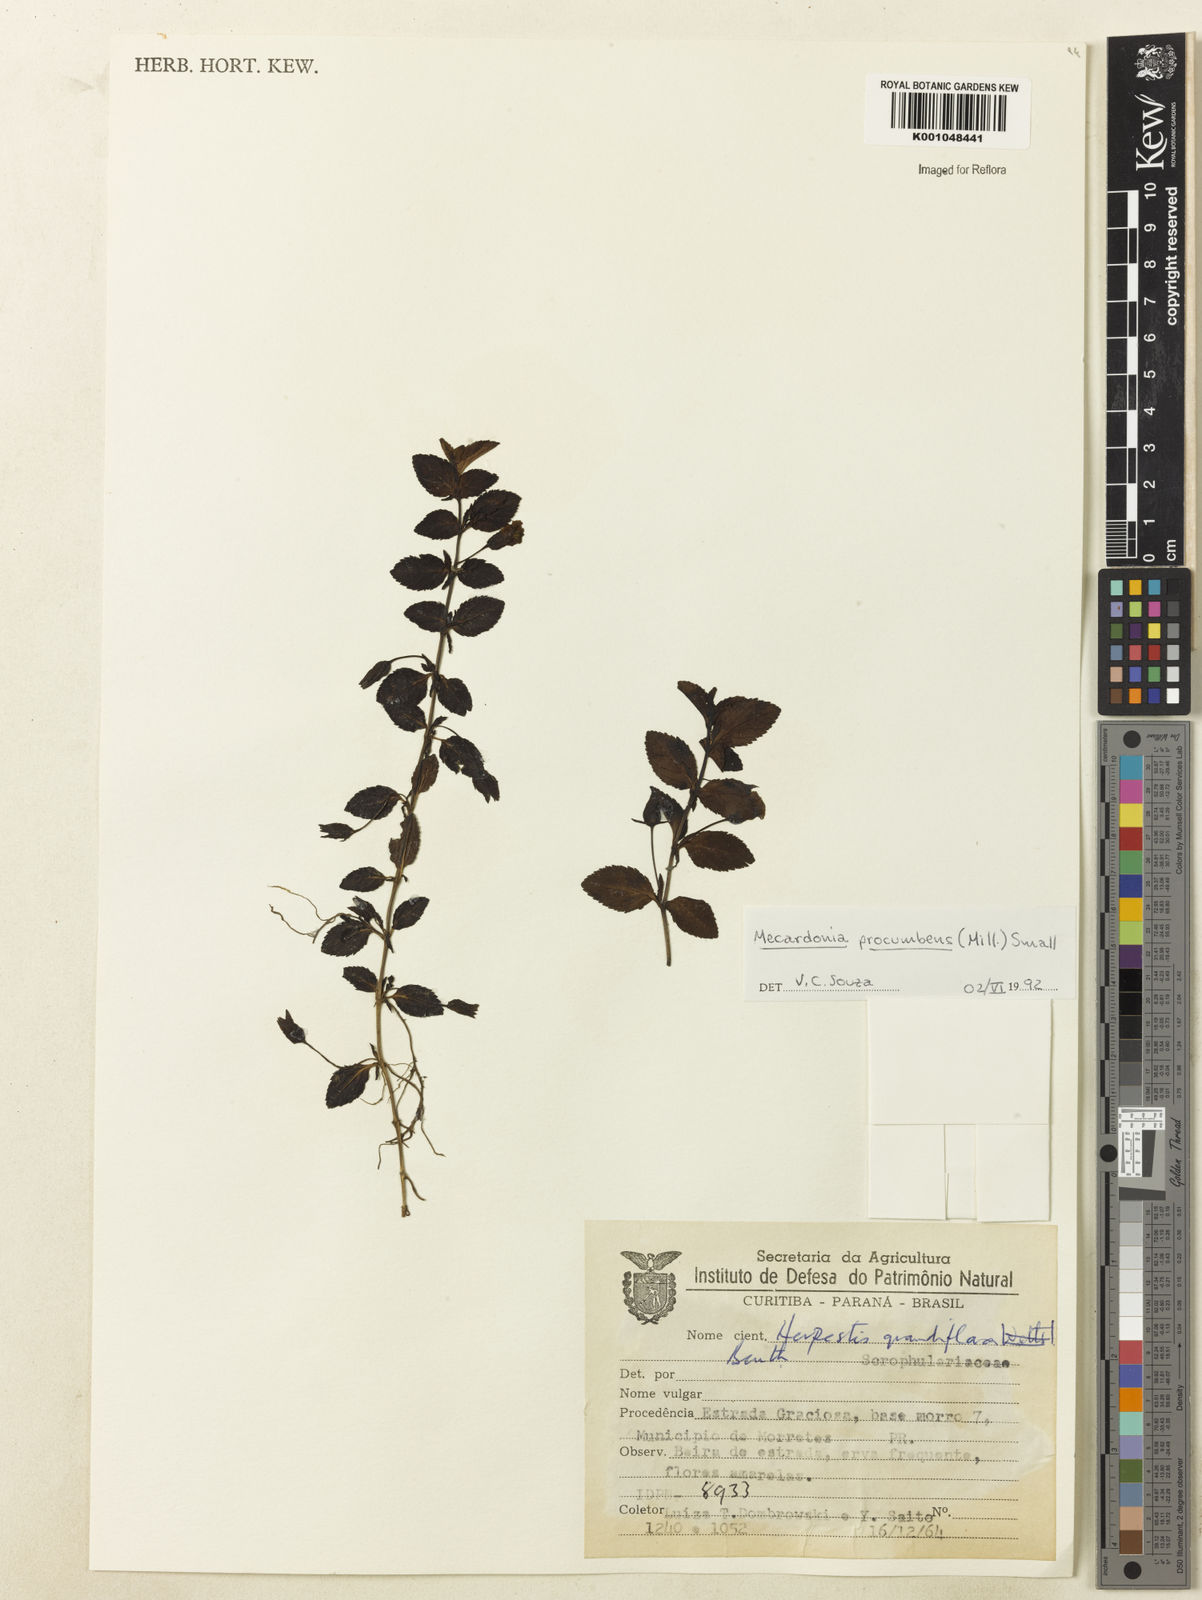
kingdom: Plantae
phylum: Tracheophyta
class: Magnoliopsida
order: Lamiales
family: Plantaginaceae
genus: Mecardonia
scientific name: Mecardonia procumbens
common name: Baby jump-up
